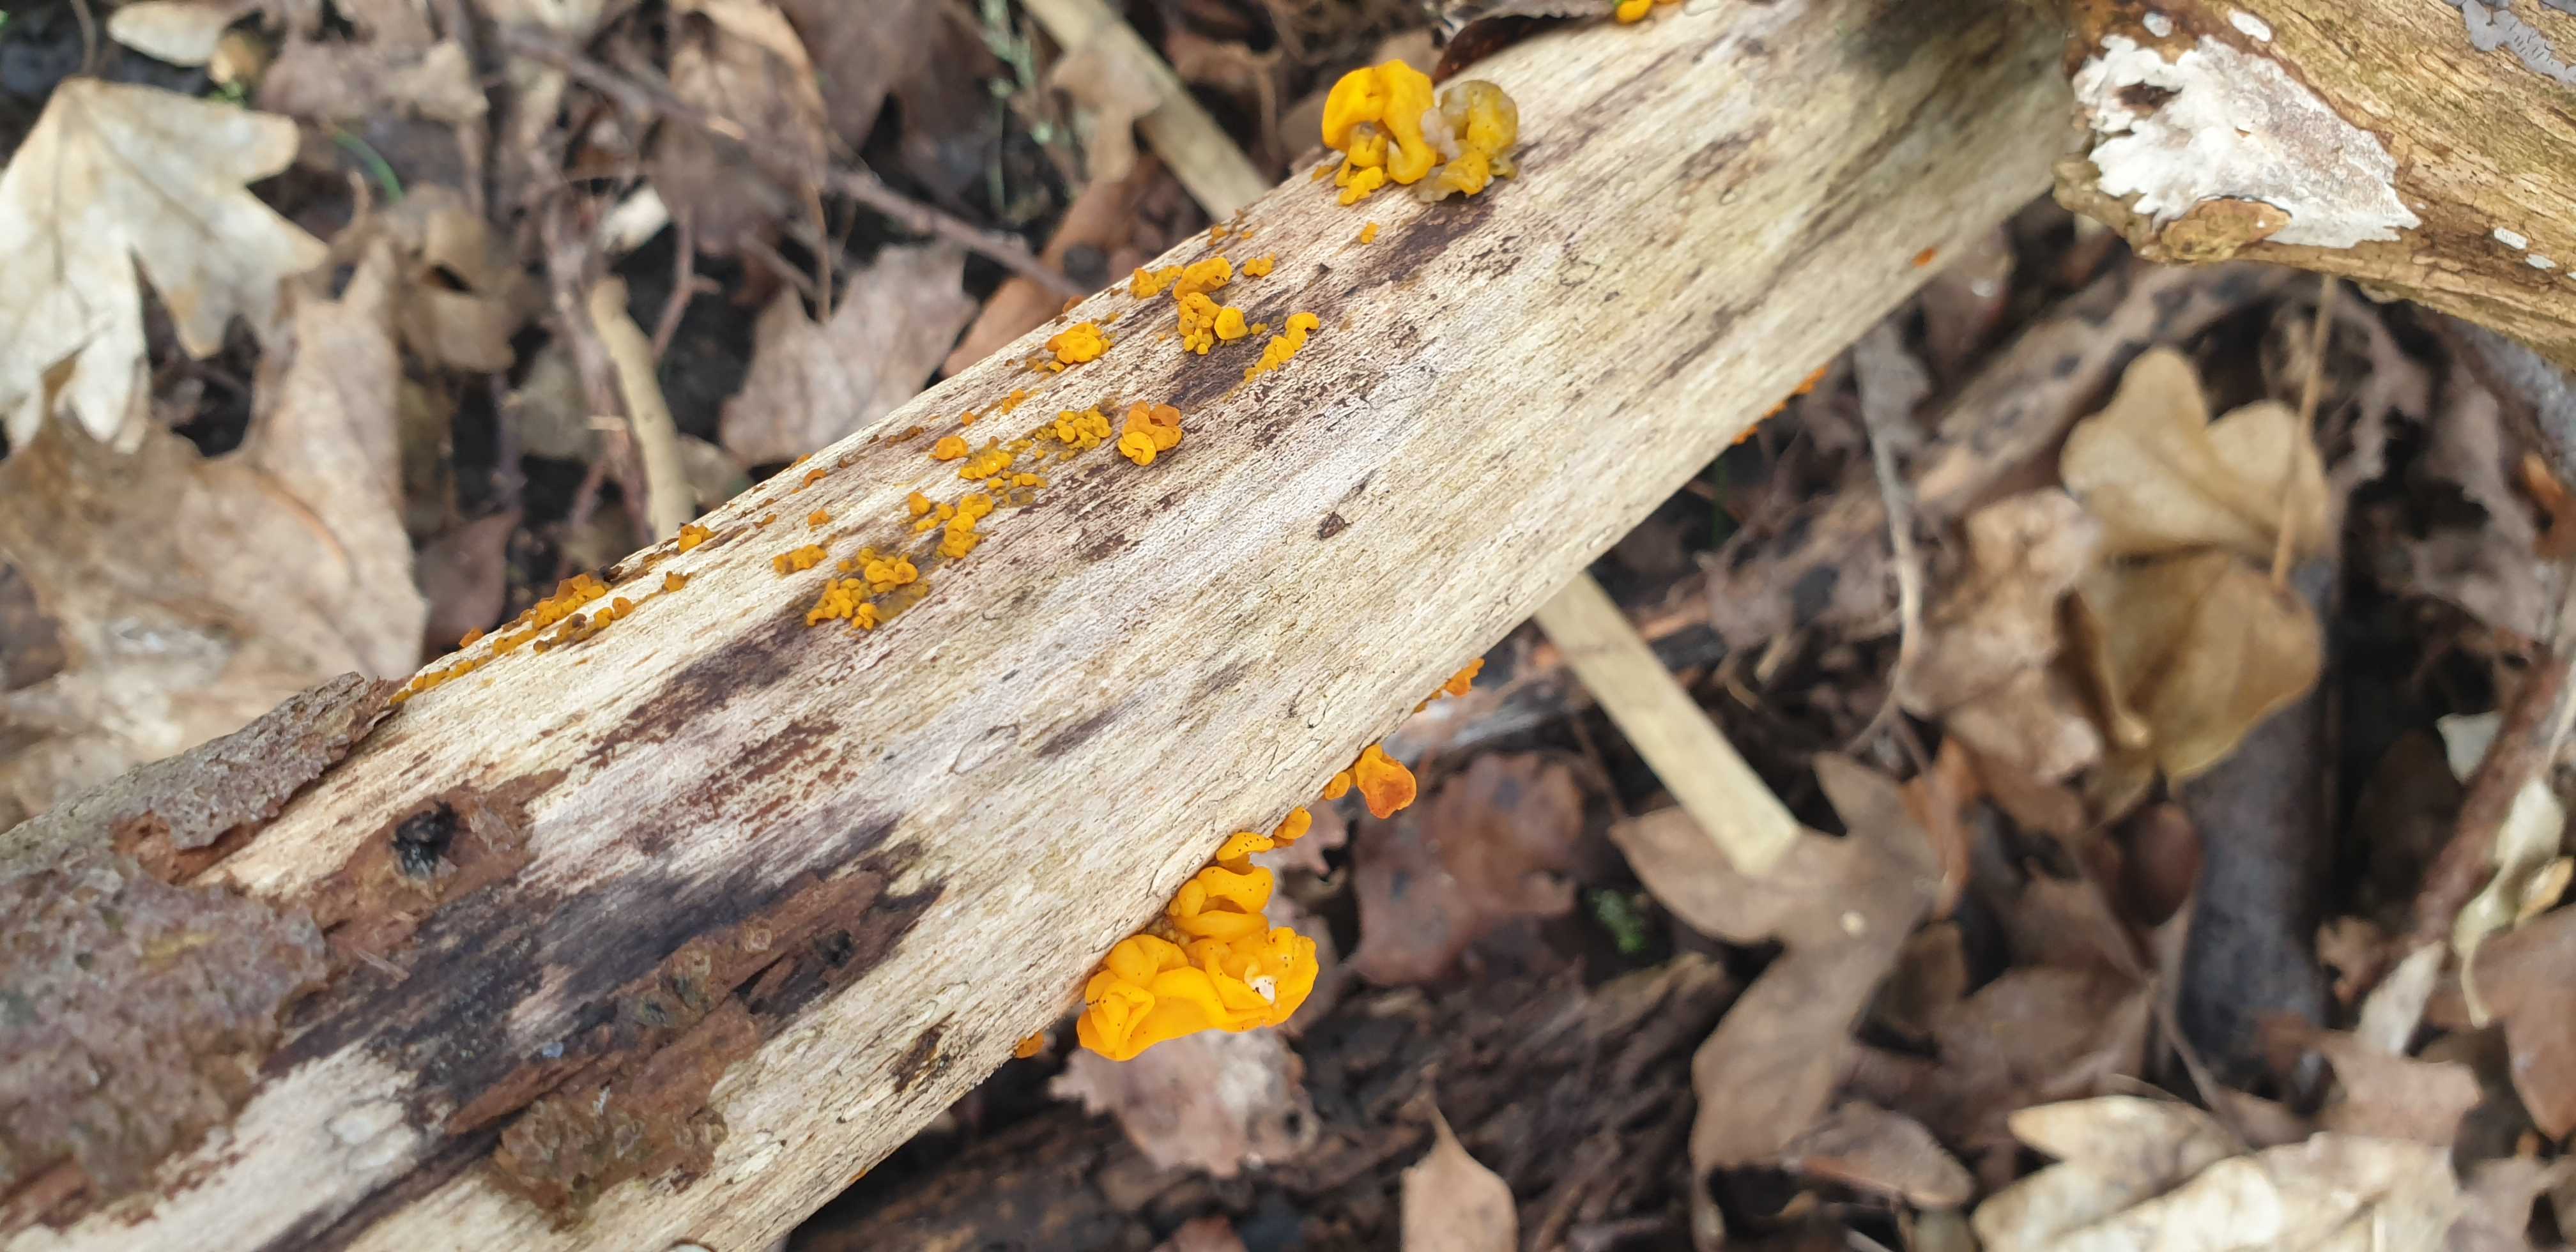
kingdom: Fungi
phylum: Basidiomycota
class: Tremellomycetes
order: Tremellales
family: Tremellaceae
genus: Tremella
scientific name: Tremella mesenterica
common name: gul bævresvamp
